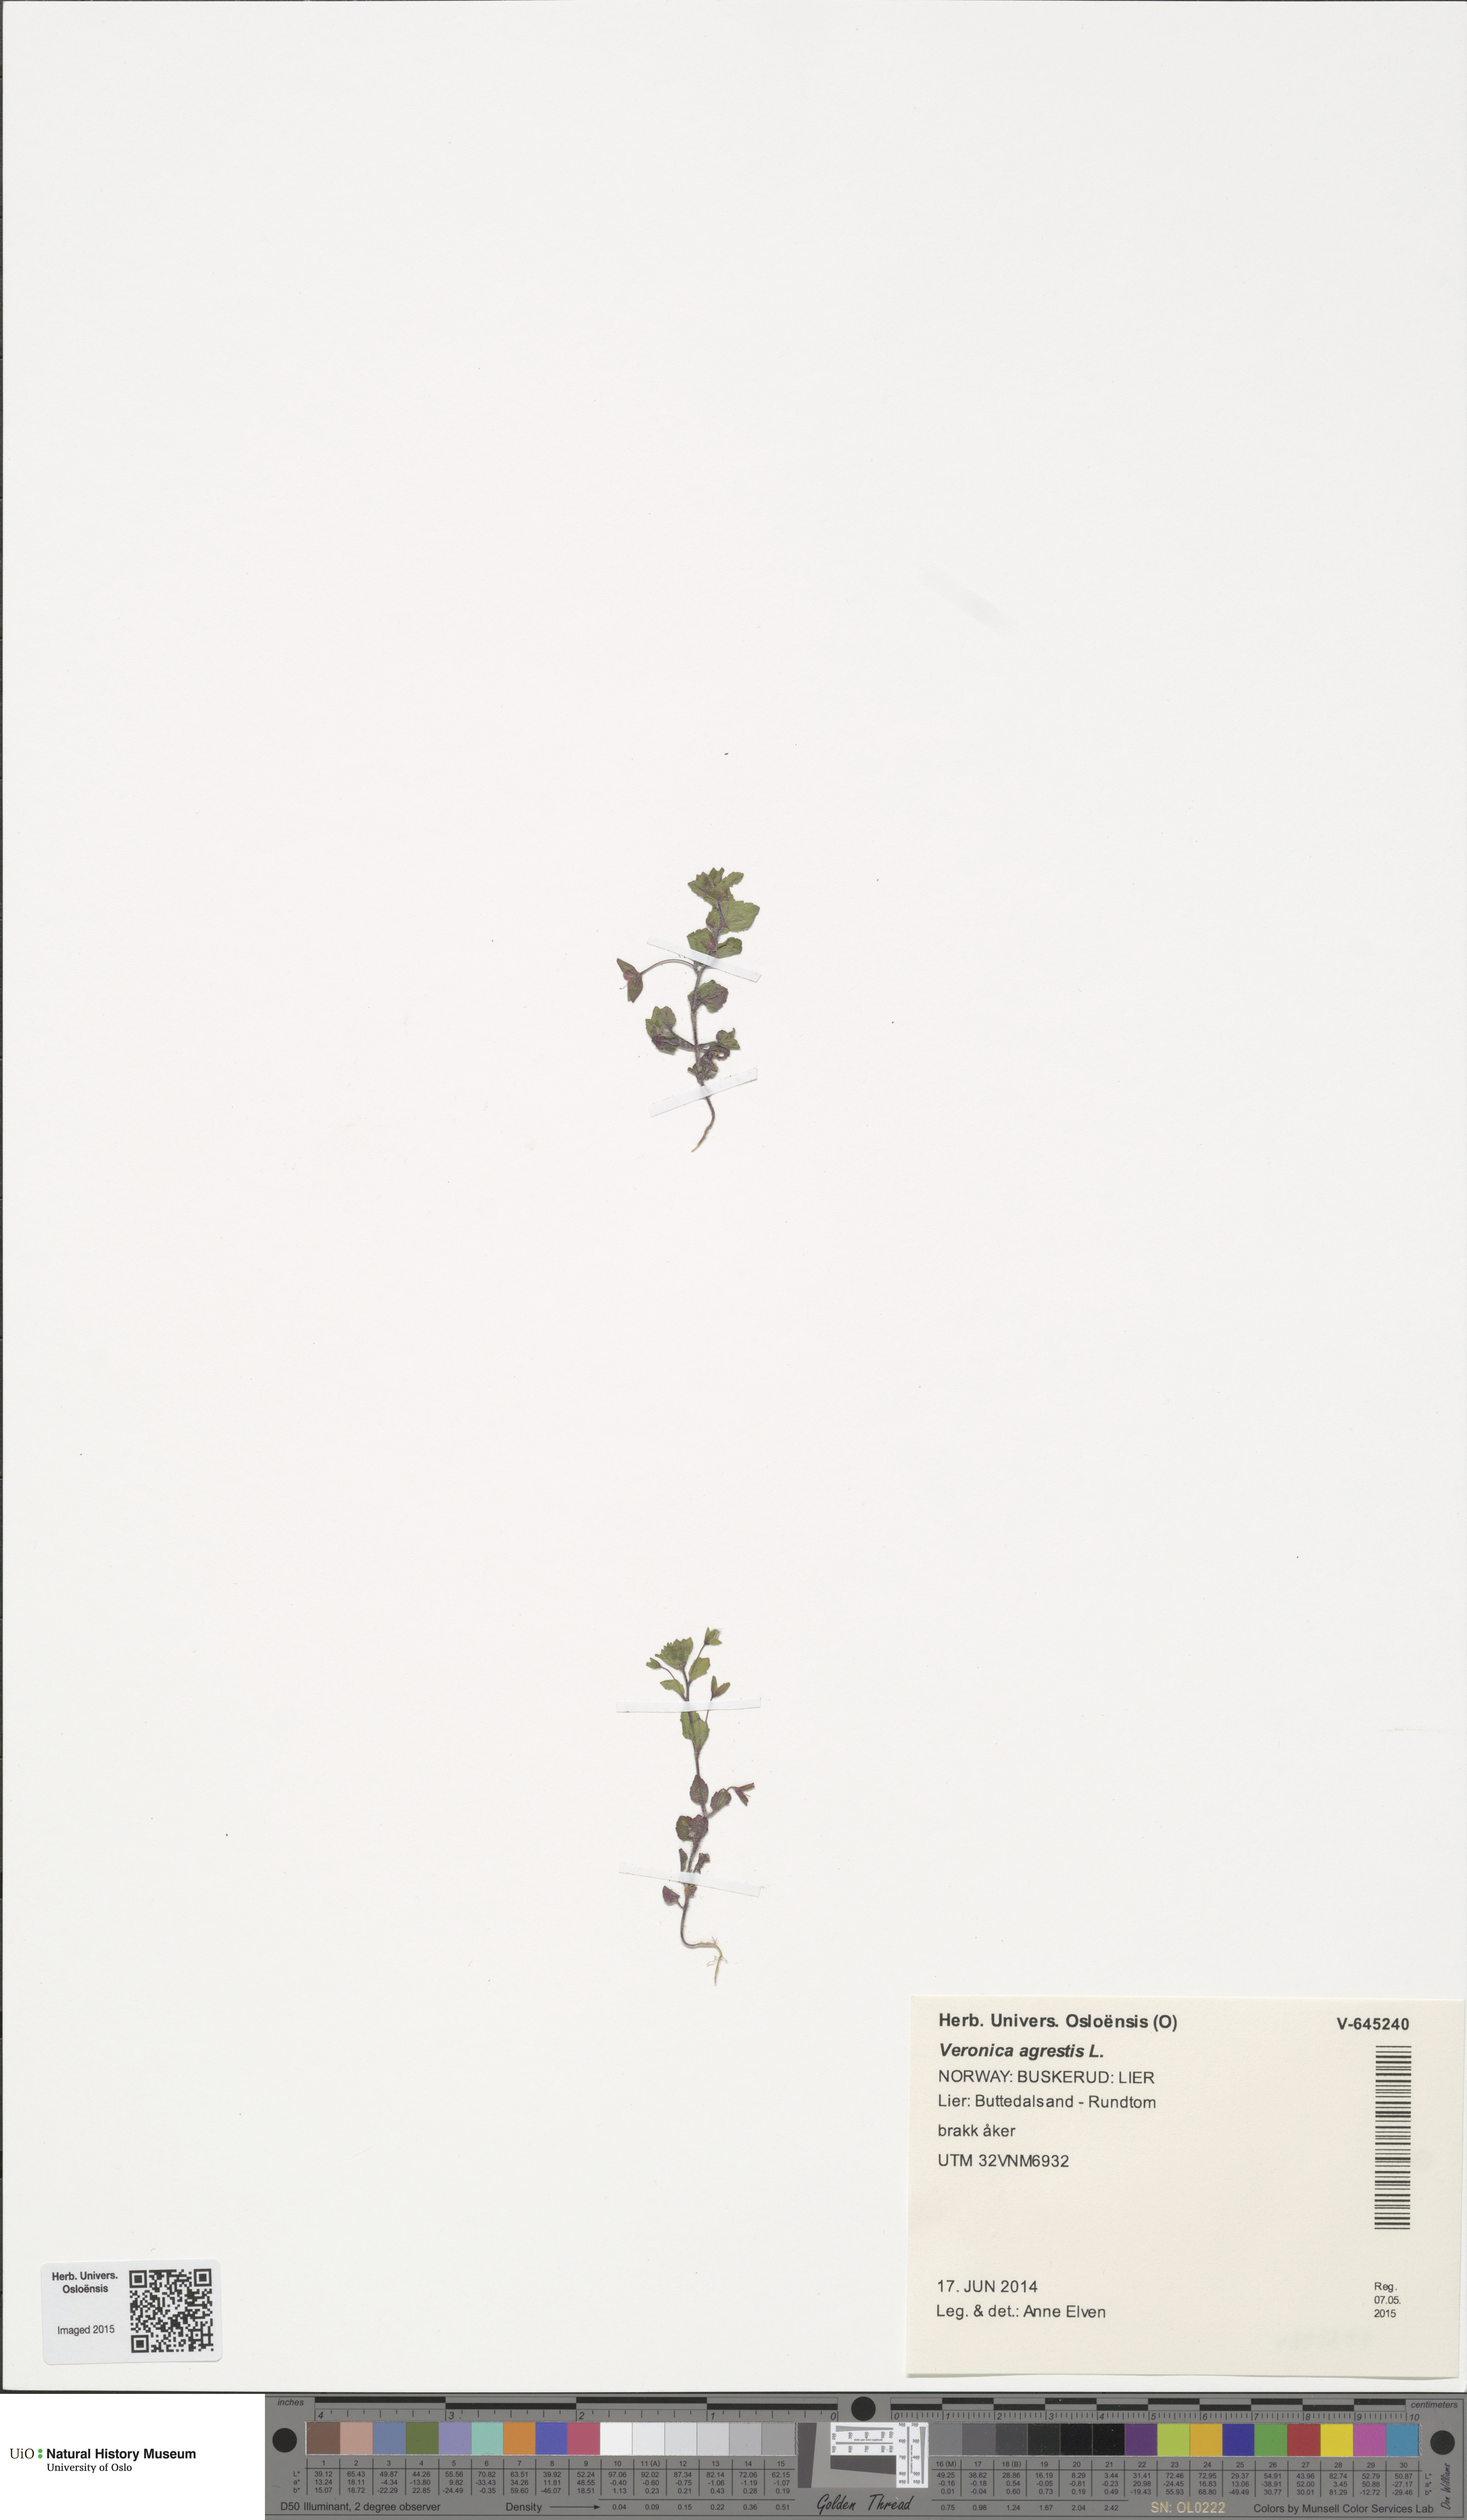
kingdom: Plantae
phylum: Tracheophyta
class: Magnoliopsida
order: Lamiales
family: Plantaginaceae
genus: Veronica
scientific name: Veronica agrestis
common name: Green field-speedwell
